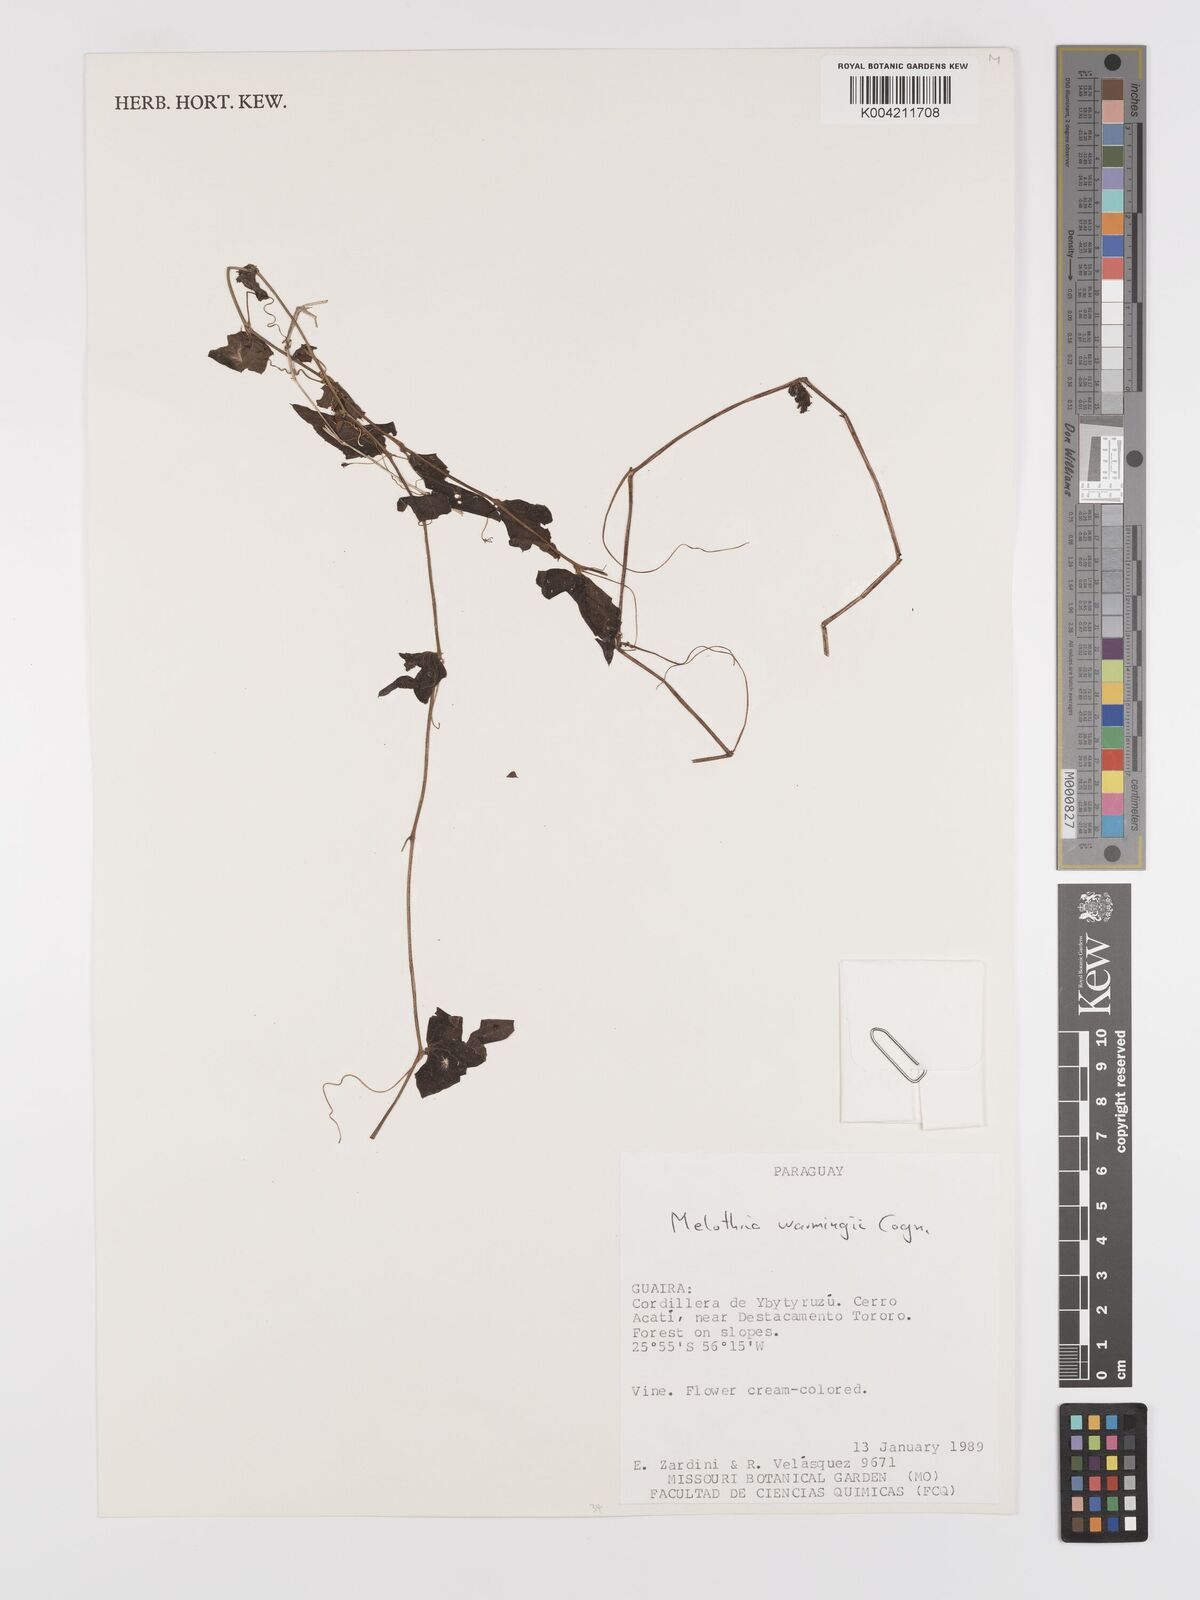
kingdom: Plantae
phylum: Tracheophyta
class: Magnoliopsida
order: Cucurbitales
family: Cucurbitaceae
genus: Melothria
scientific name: Melothria warmingii
